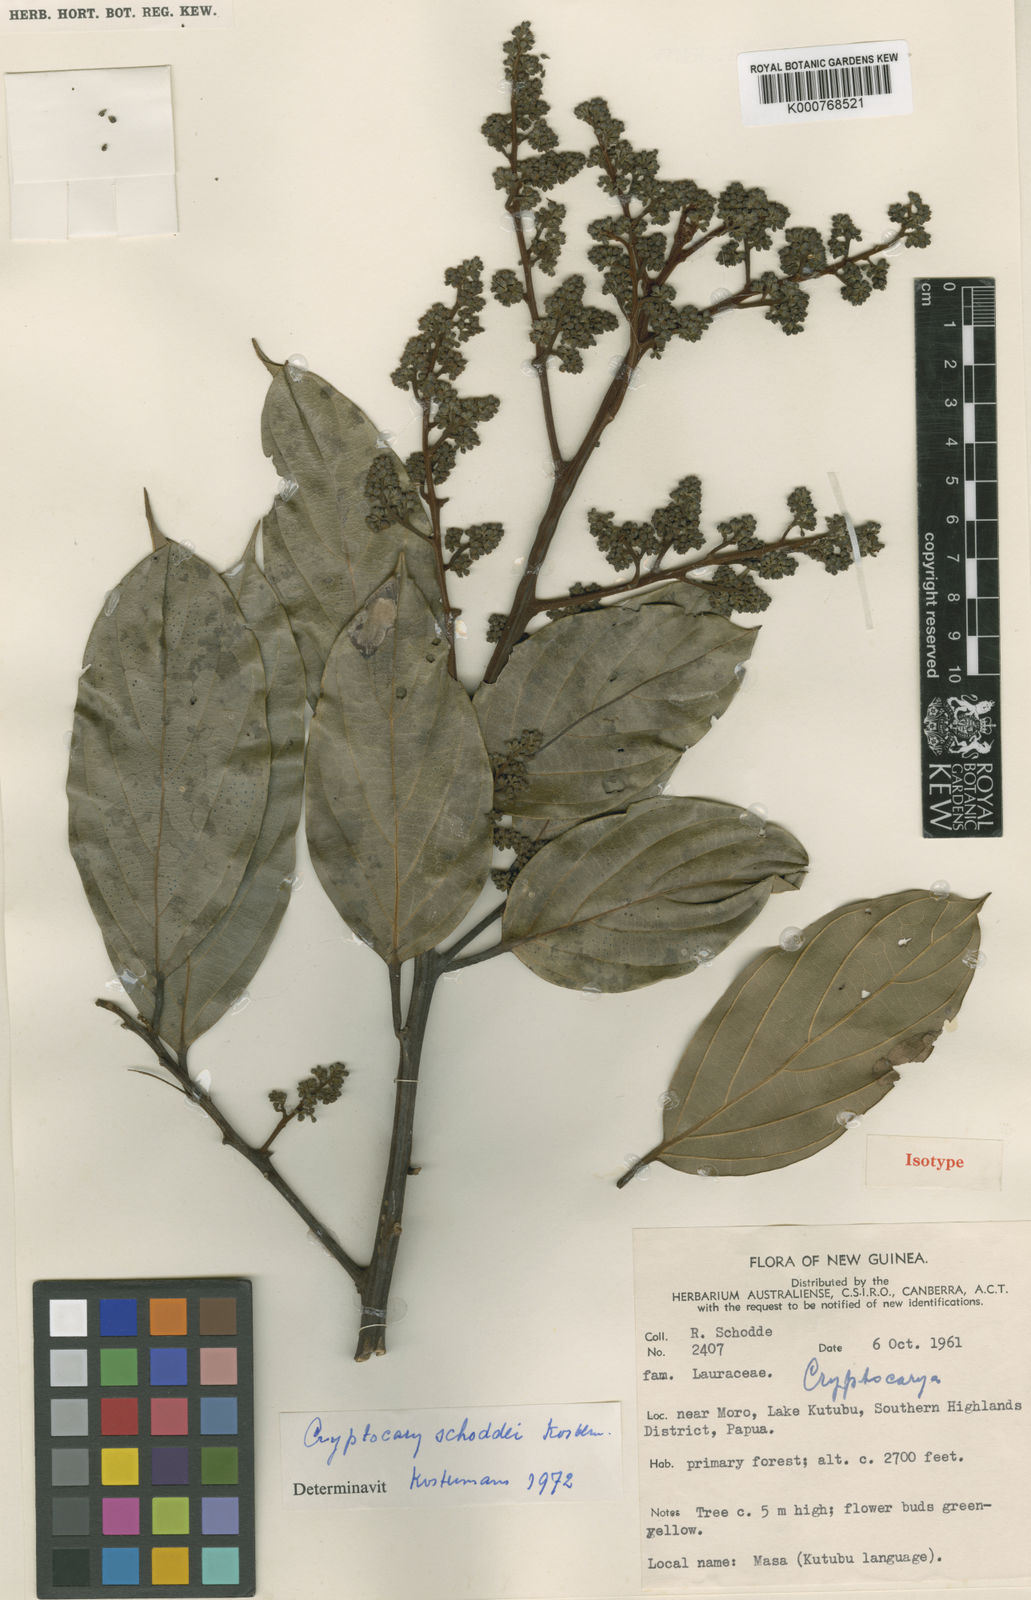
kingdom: Plantae
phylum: Tracheophyta
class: Magnoliopsida
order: Laurales
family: Lauraceae
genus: Cryptocarya
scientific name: Cryptocarya schoddei
